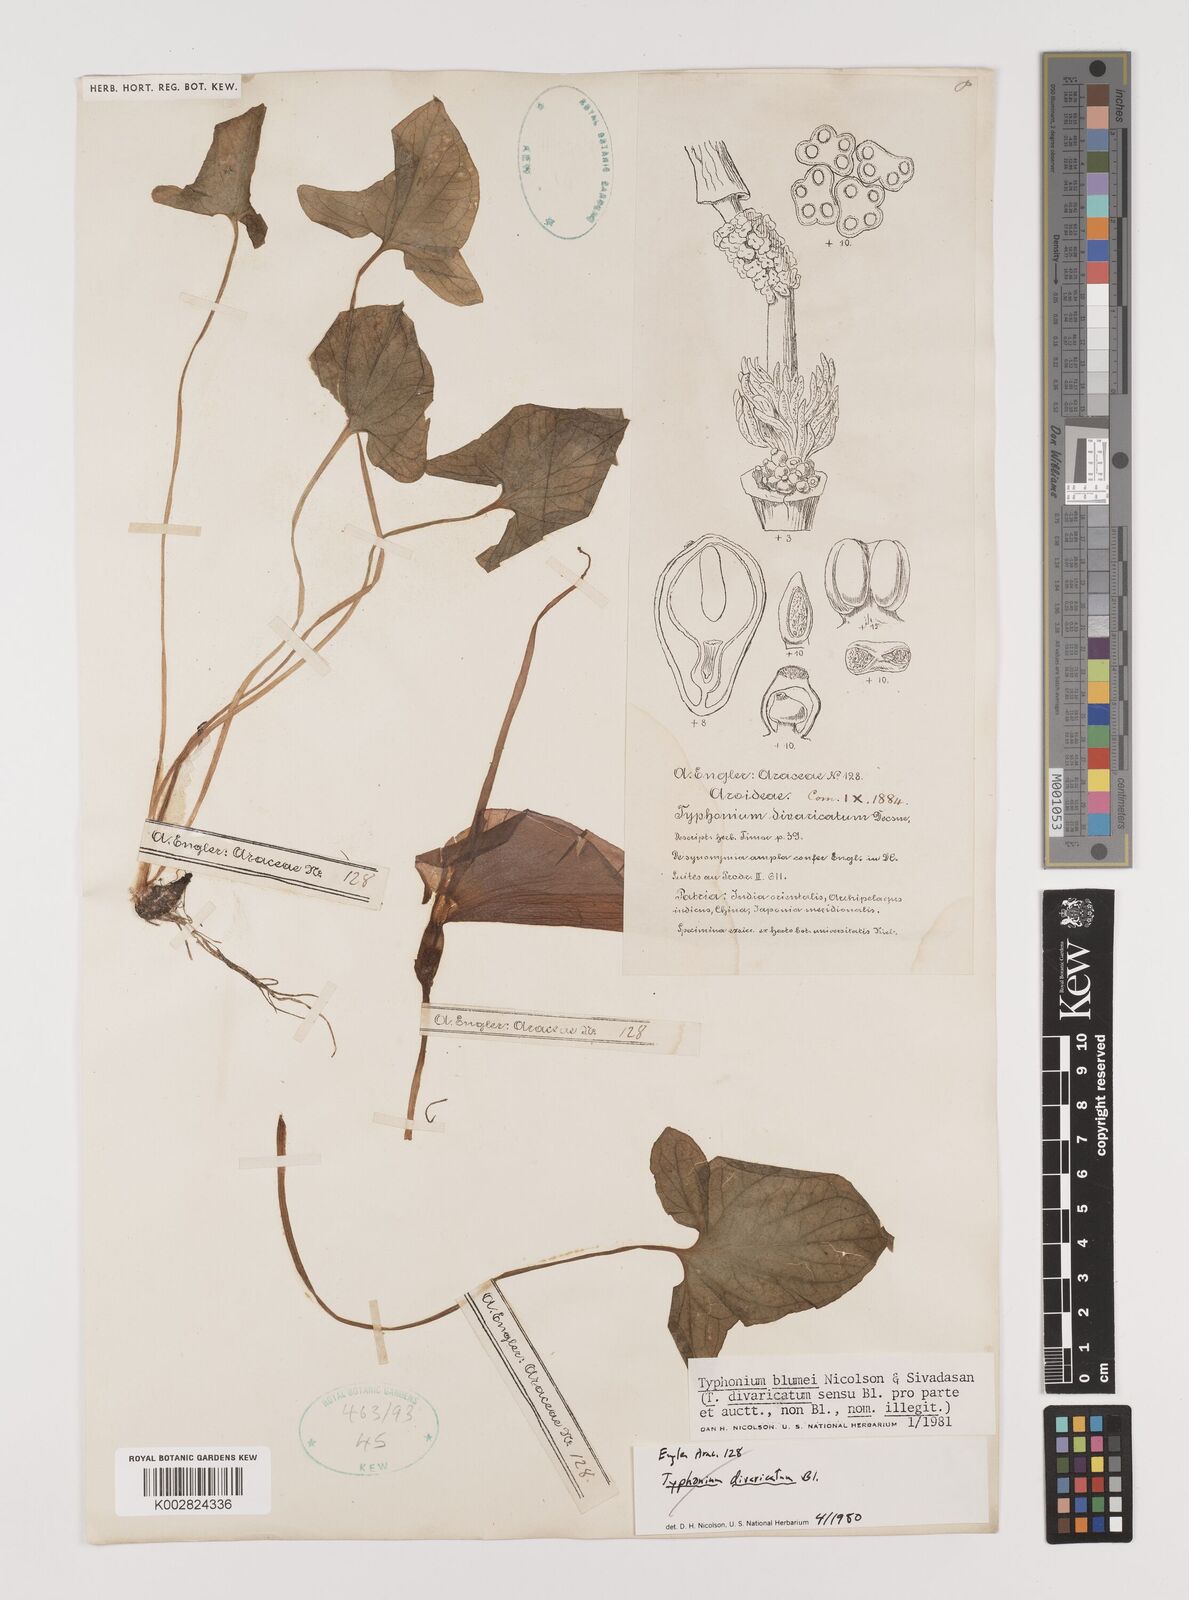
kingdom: Plantae
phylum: Tracheophyta
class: Liliopsida
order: Alismatales
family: Araceae
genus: Typhonium
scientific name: Typhonium blumei
